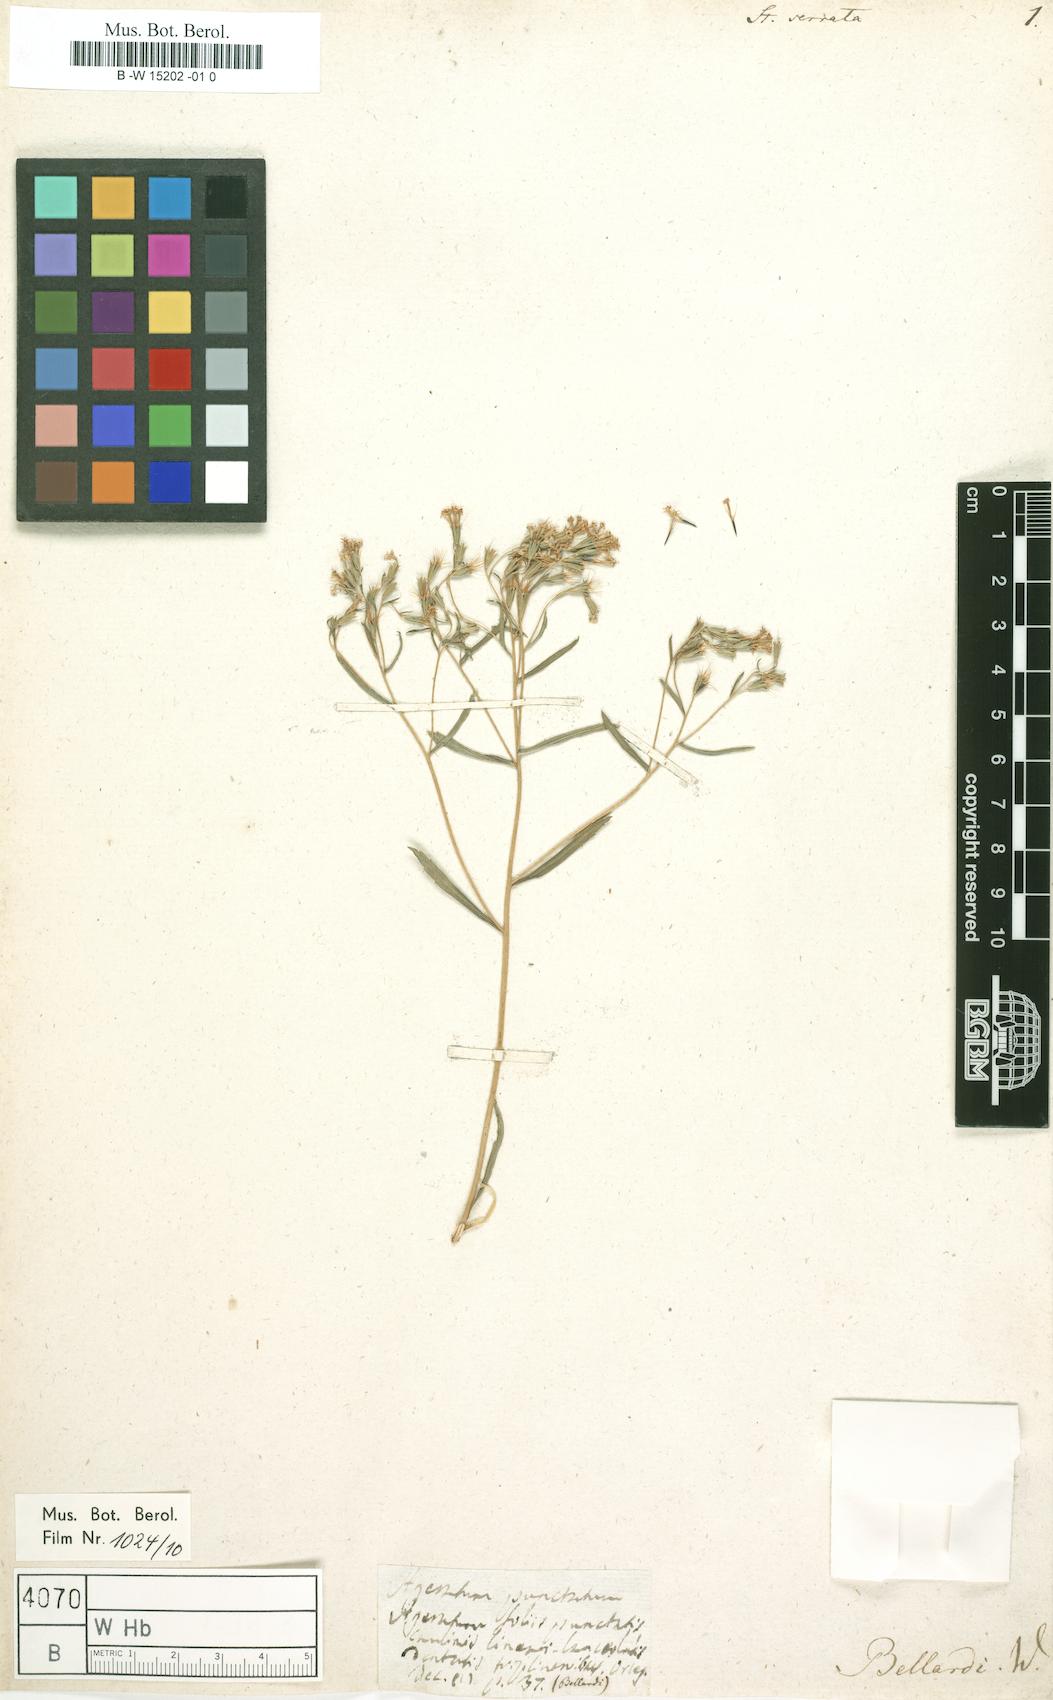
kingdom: Plantae
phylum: Tracheophyta
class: Magnoliopsida
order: Asterales
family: Asteraceae
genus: Stevia
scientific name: Stevia serrata
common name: Sawtooth candyleaf
